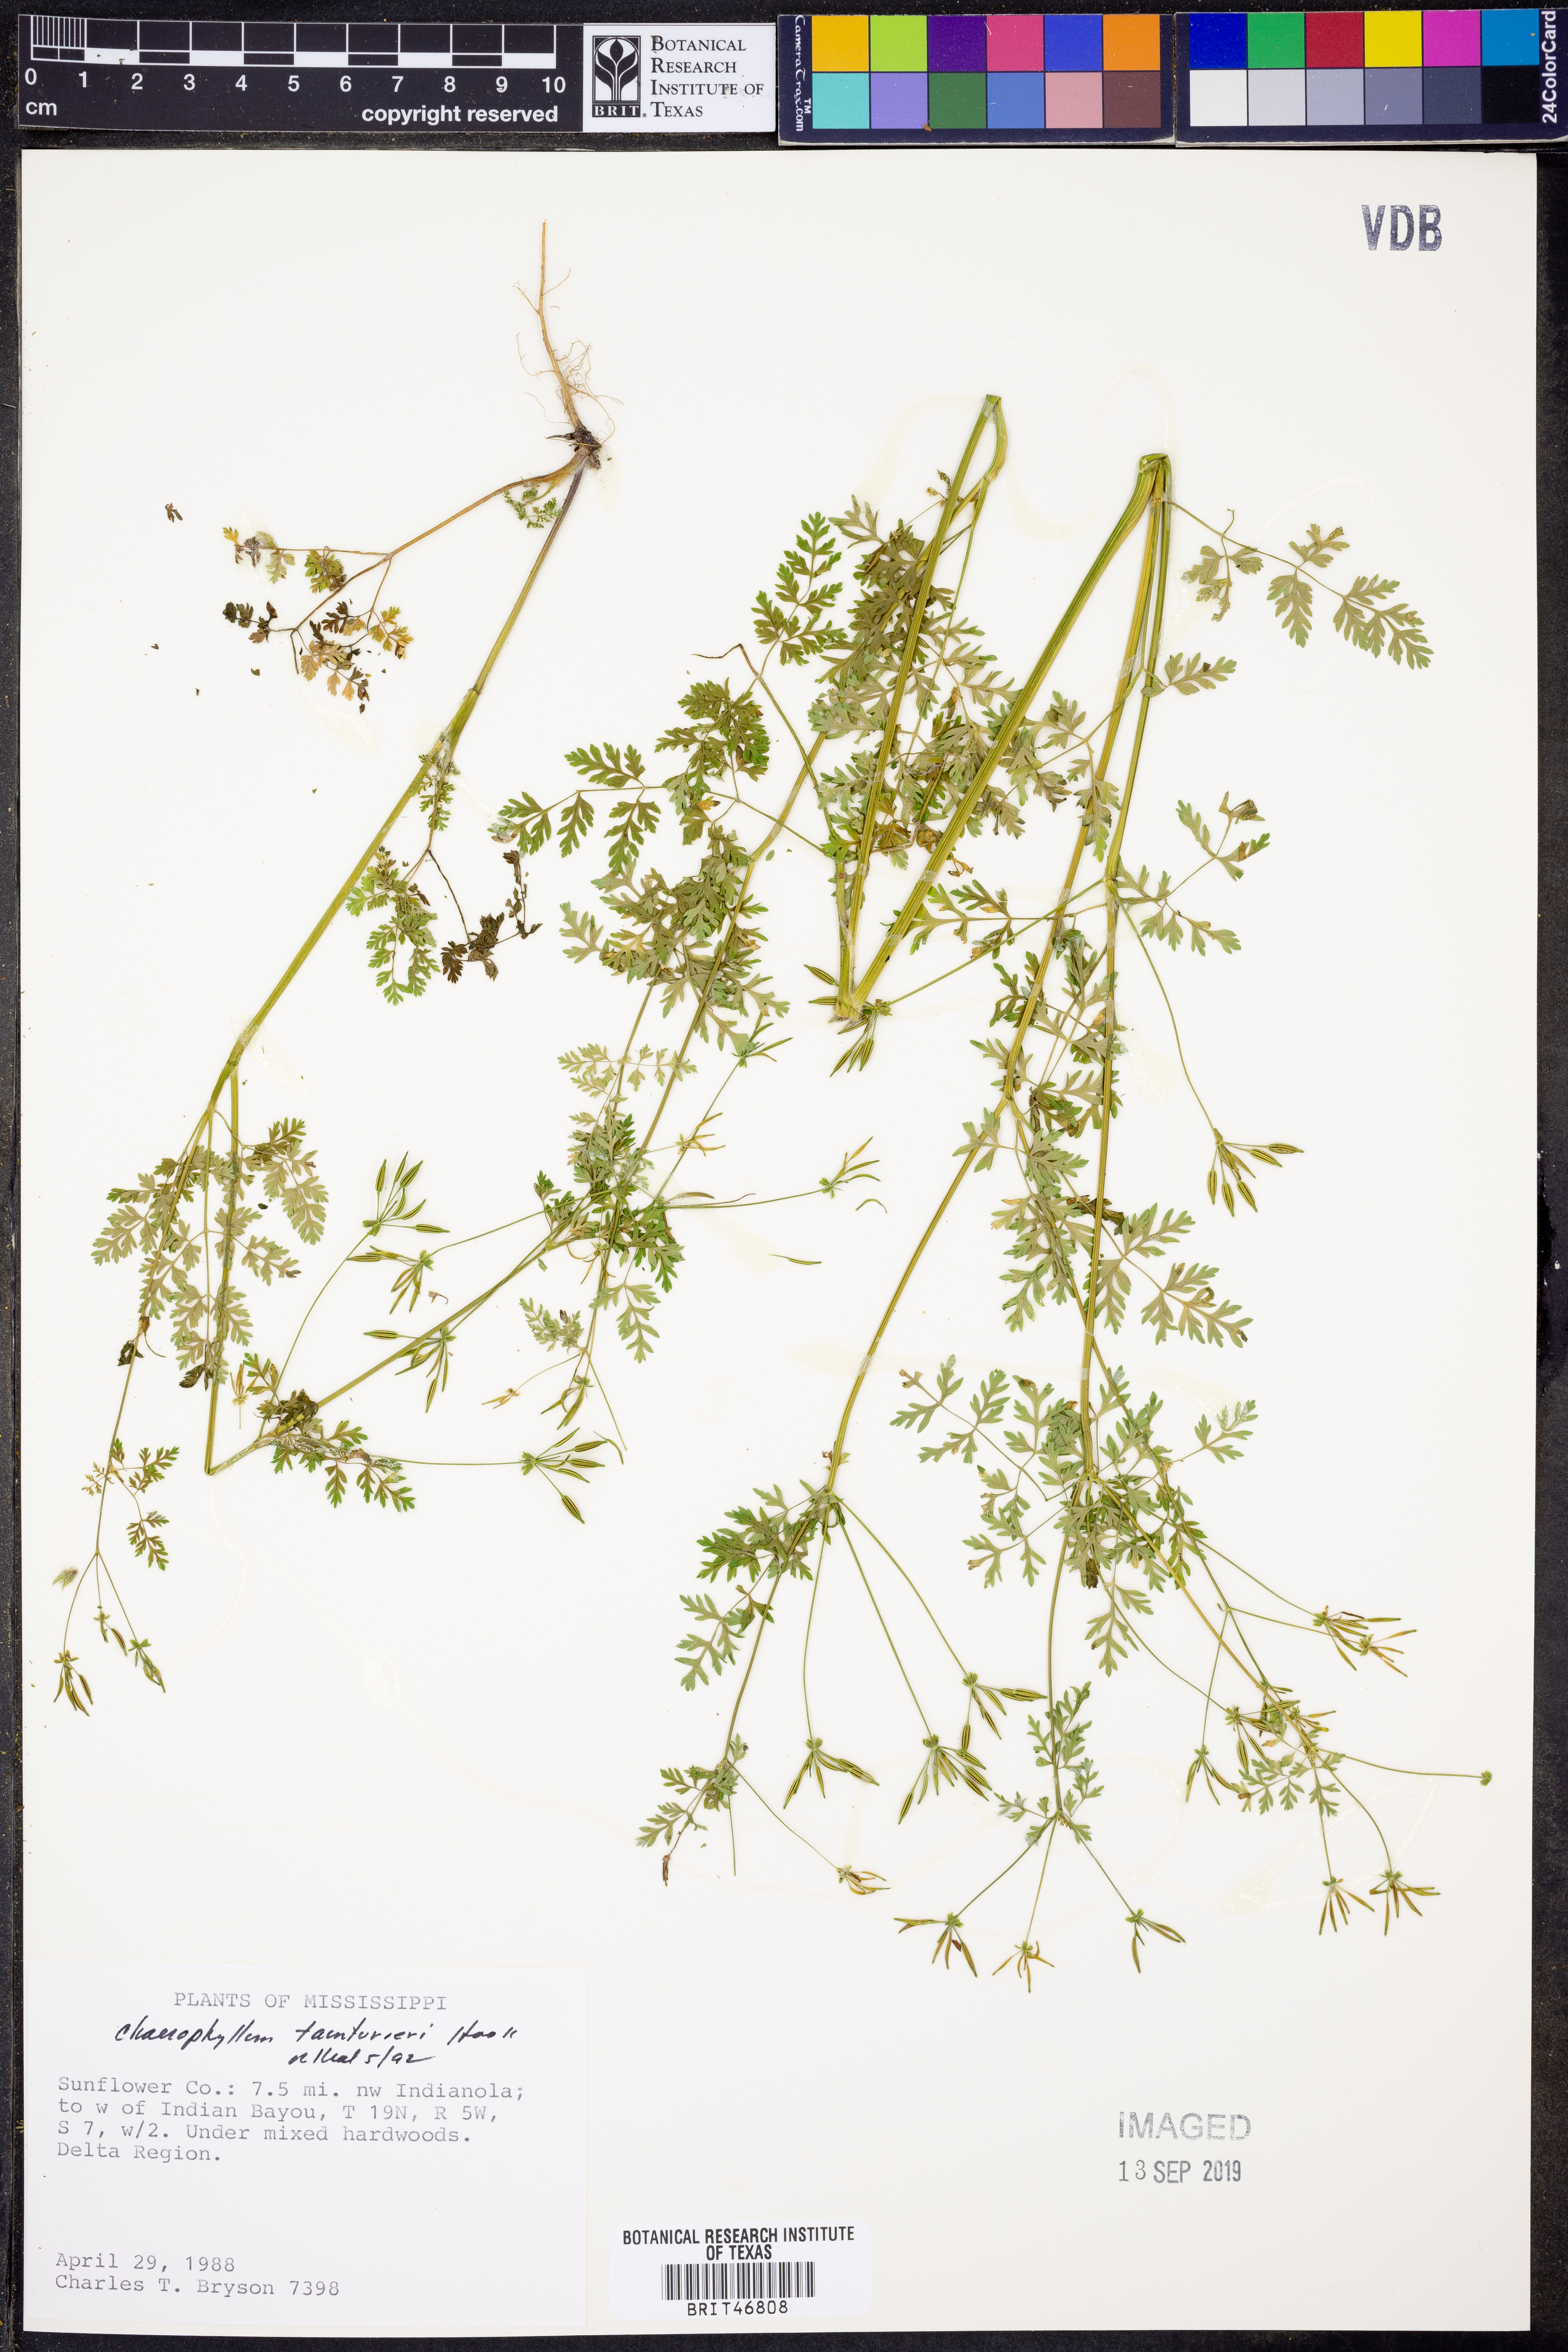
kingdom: Plantae
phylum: Tracheophyta
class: Magnoliopsida
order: Apiales
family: Apiaceae
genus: Chaerophyllum
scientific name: Chaerophyllum tainturieri
